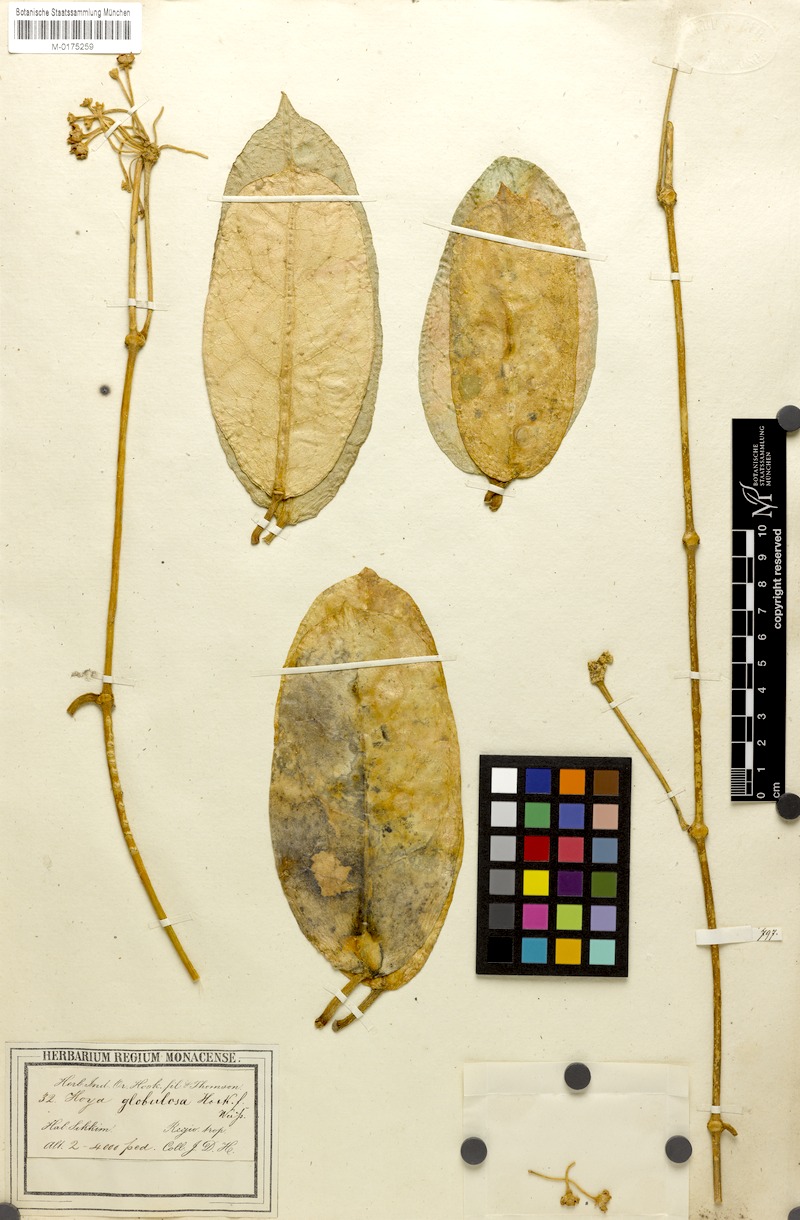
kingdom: Plantae
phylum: Tracheophyta
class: Magnoliopsida
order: Gentianales
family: Apocynaceae
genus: Hoya
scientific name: Hoya globulosa
